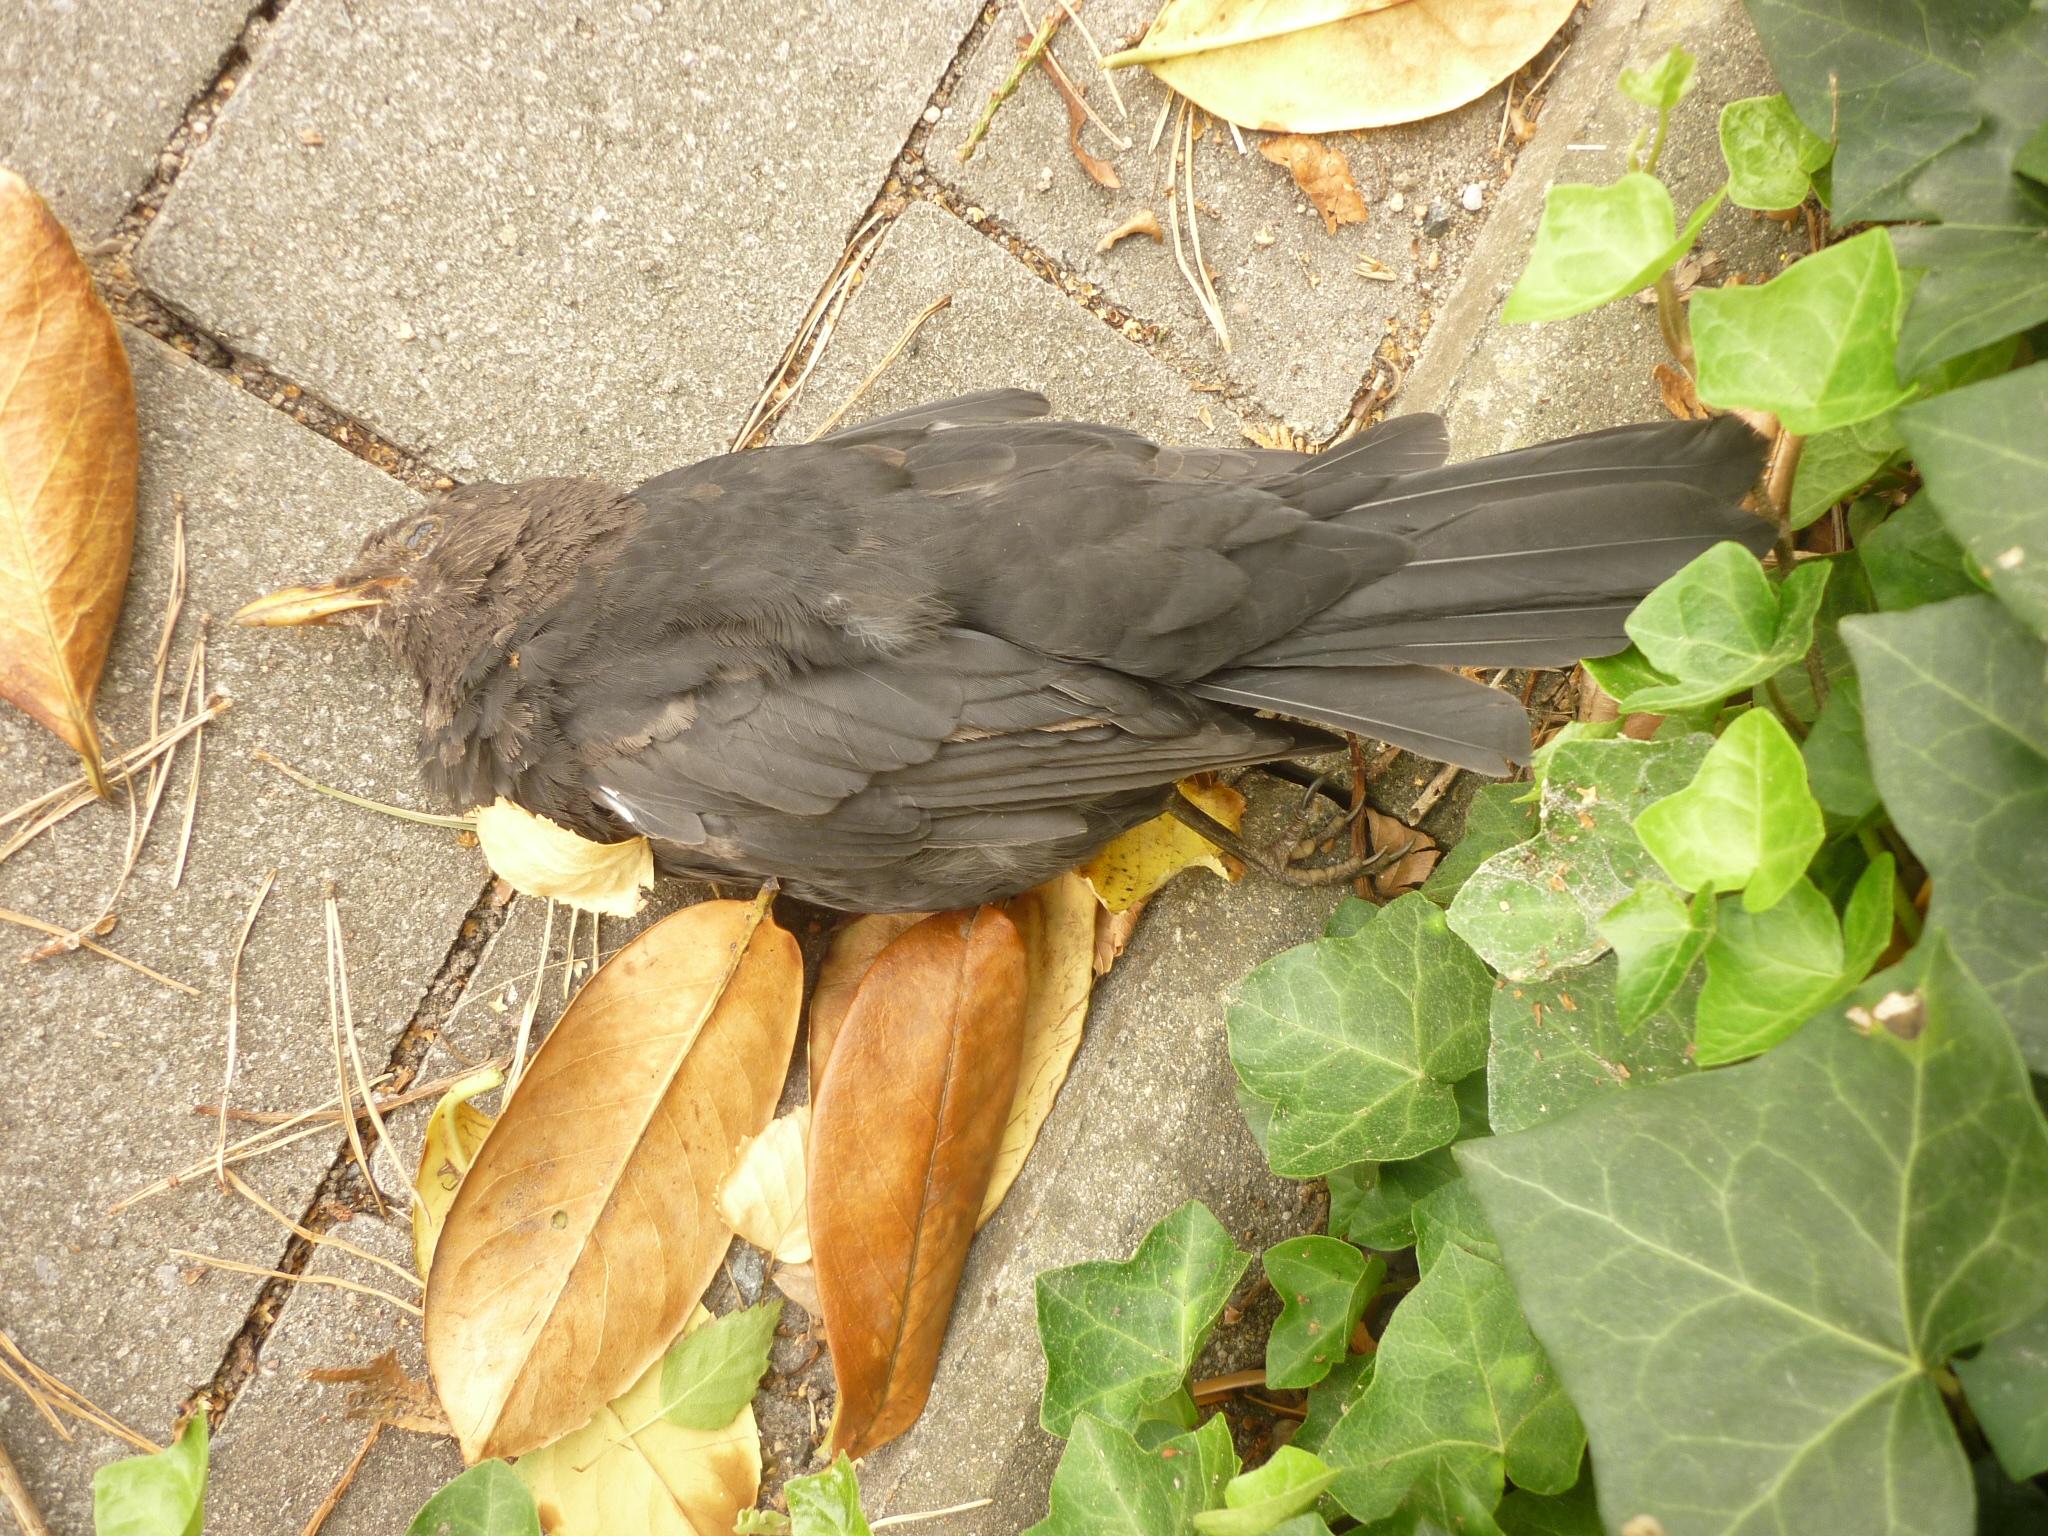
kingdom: Animalia
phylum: Chordata
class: Aves
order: Passeriformes
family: Turdidae
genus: Turdus
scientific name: Turdus merula
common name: Common blackbird
